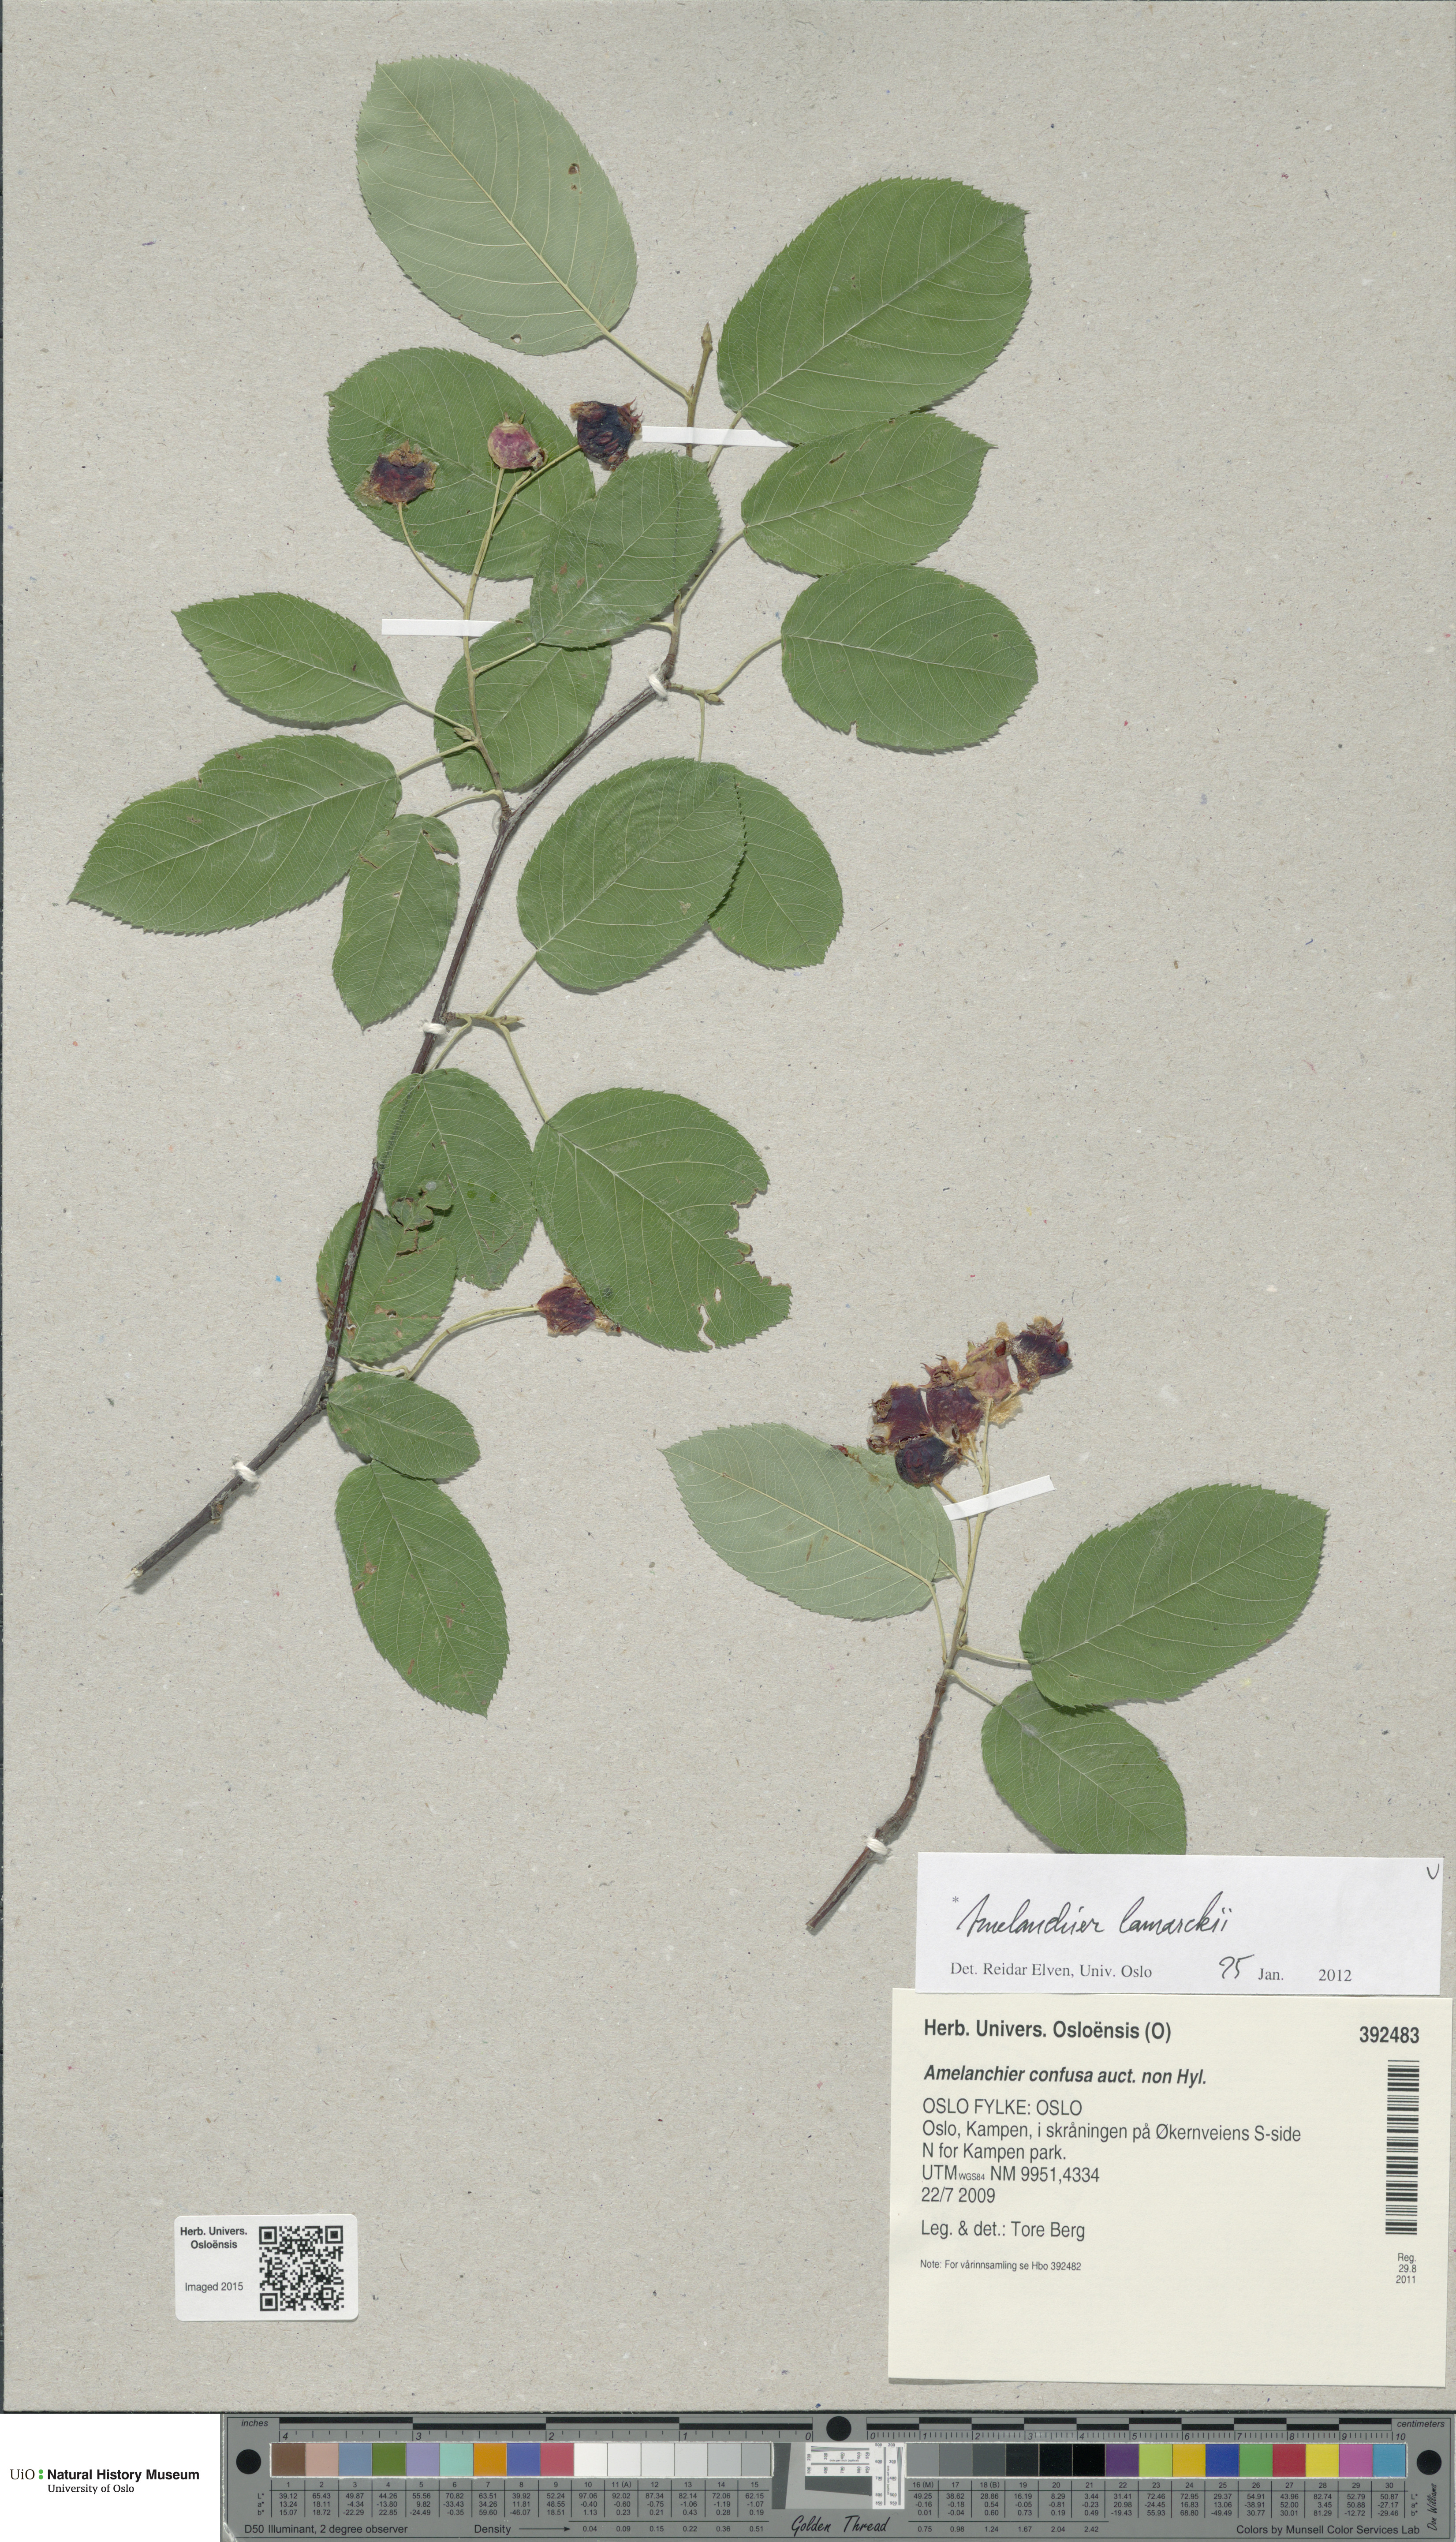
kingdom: Plantae
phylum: Tracheophyta
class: Magnoliopsida
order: Rosales
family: Rosaceae
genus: Amelanchier
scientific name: Amelanchier lamarckii
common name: Juneberry
